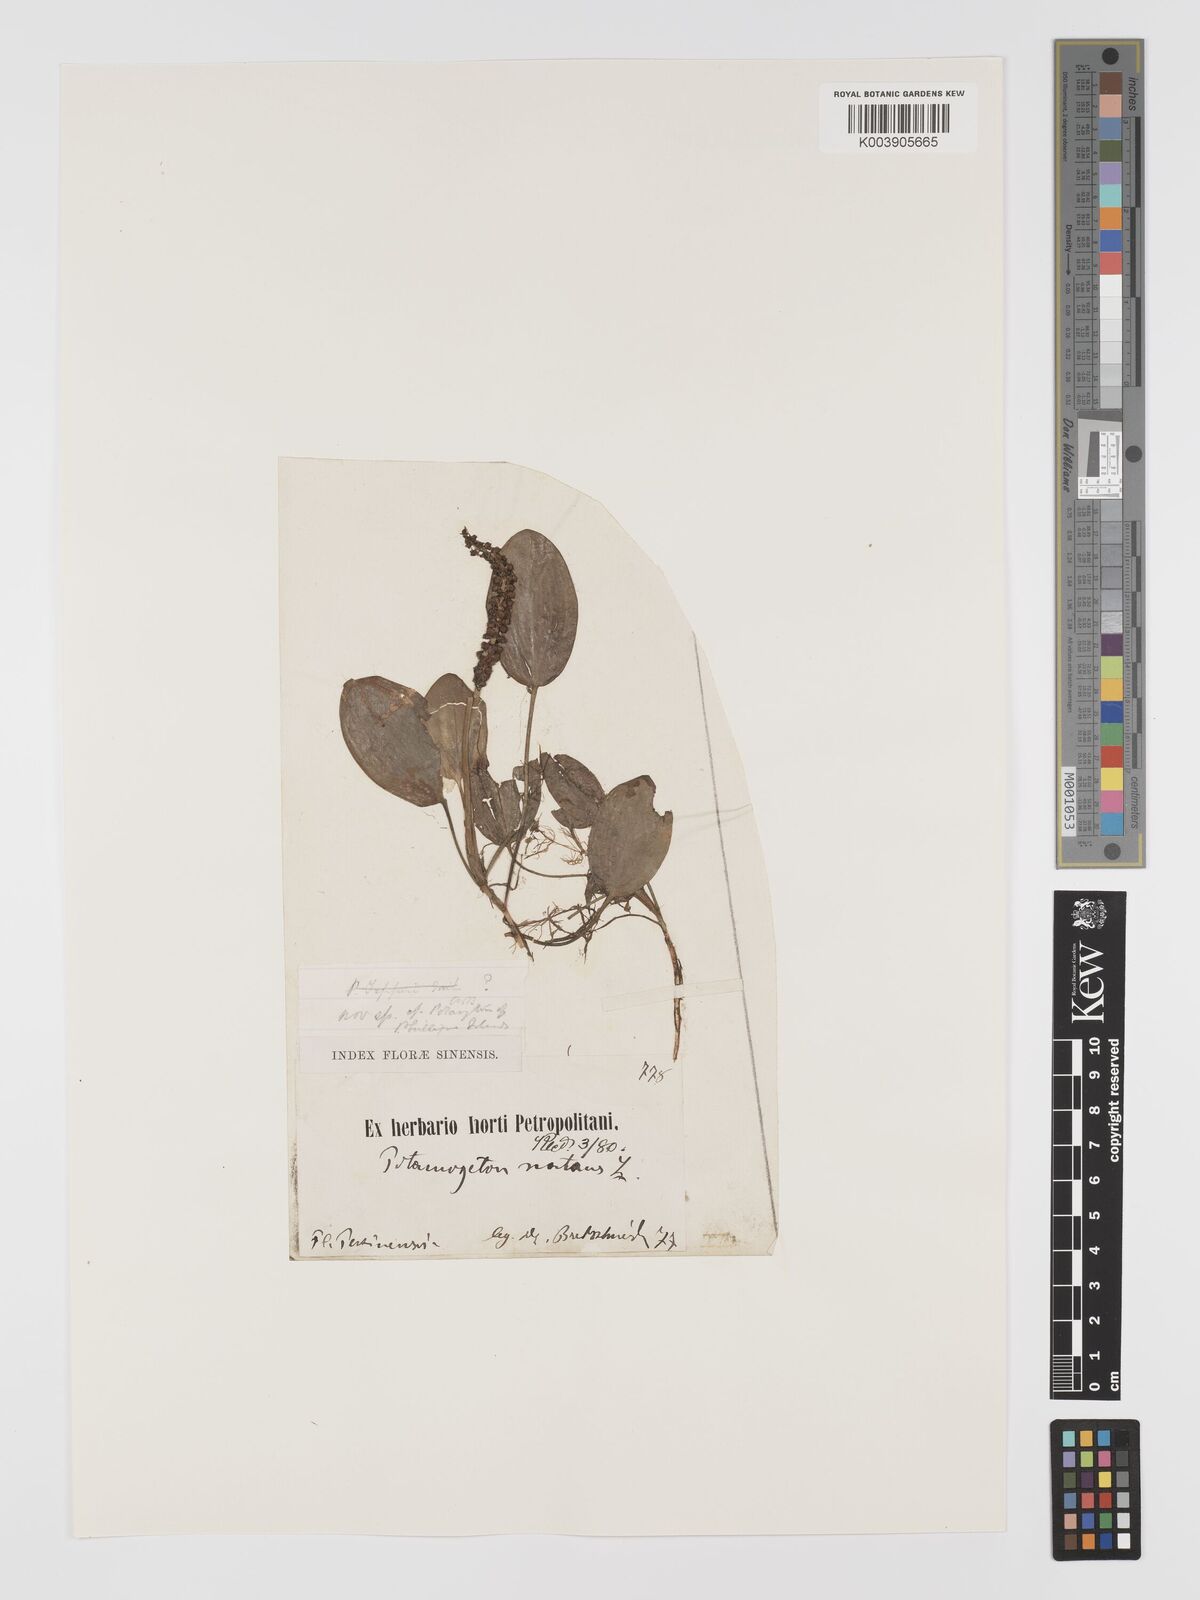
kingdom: Plantae
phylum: Tracheophyta
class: Liliopsida
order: Alismatales
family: Potamogetonaceae
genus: Potamogeton
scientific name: Potamogeton natans
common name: Broad-leaved pondweed
